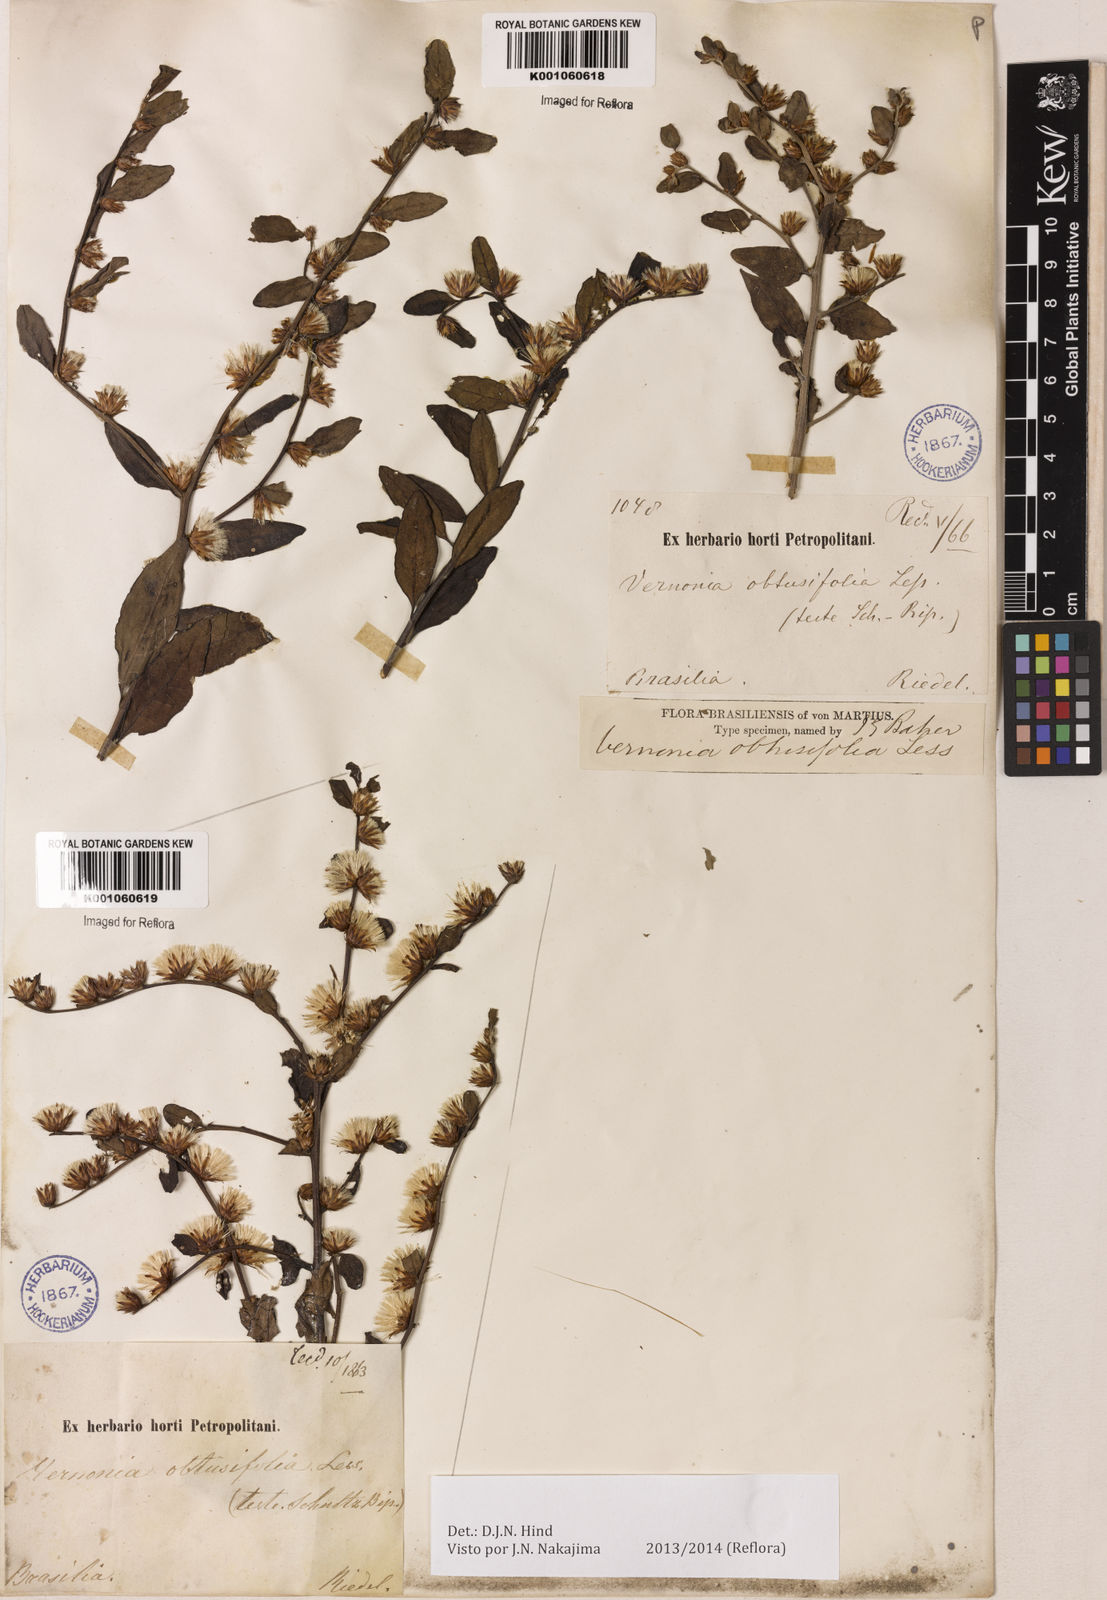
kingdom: Plantae
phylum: Tracheophyta
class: Magnoliopsida
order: Asterales
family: Asteraceae
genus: Lepidaploa
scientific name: Lepidaploa obtusifolia
